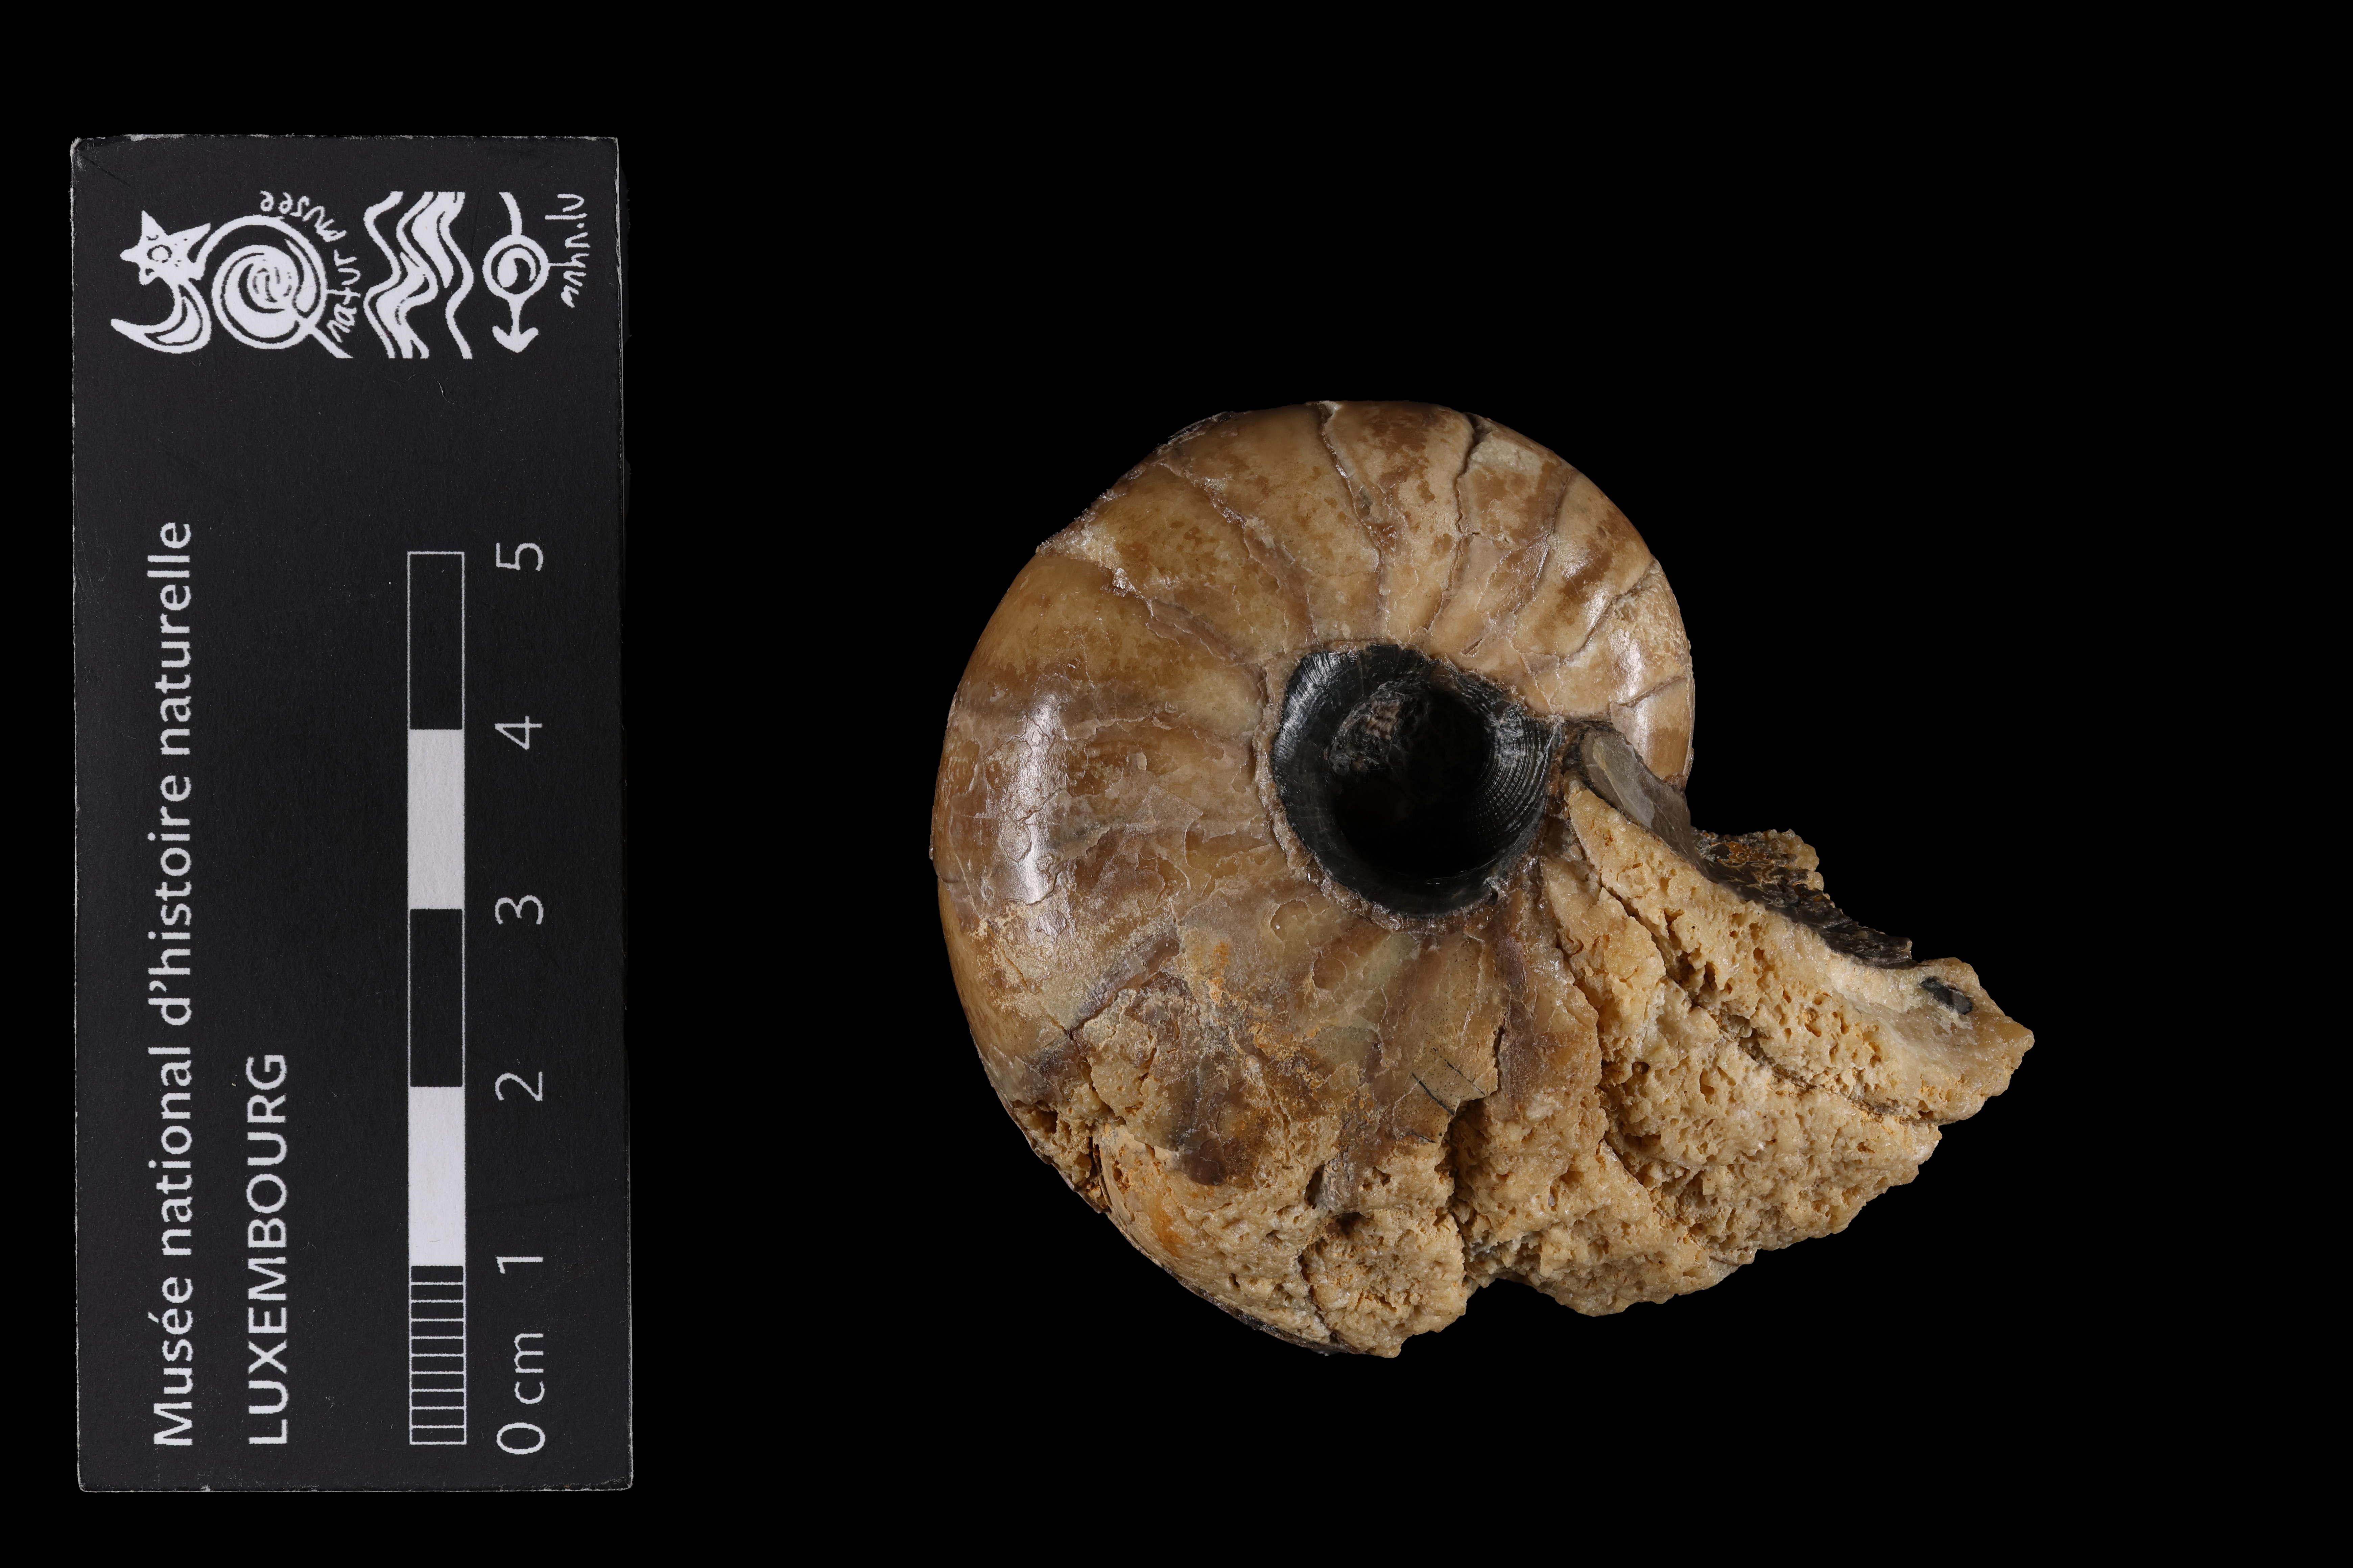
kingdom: Animalia
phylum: Mollusca
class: Cephalopoda
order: Nautilida
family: Nautilidae
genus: Cenoceras
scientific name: Cenoceras
